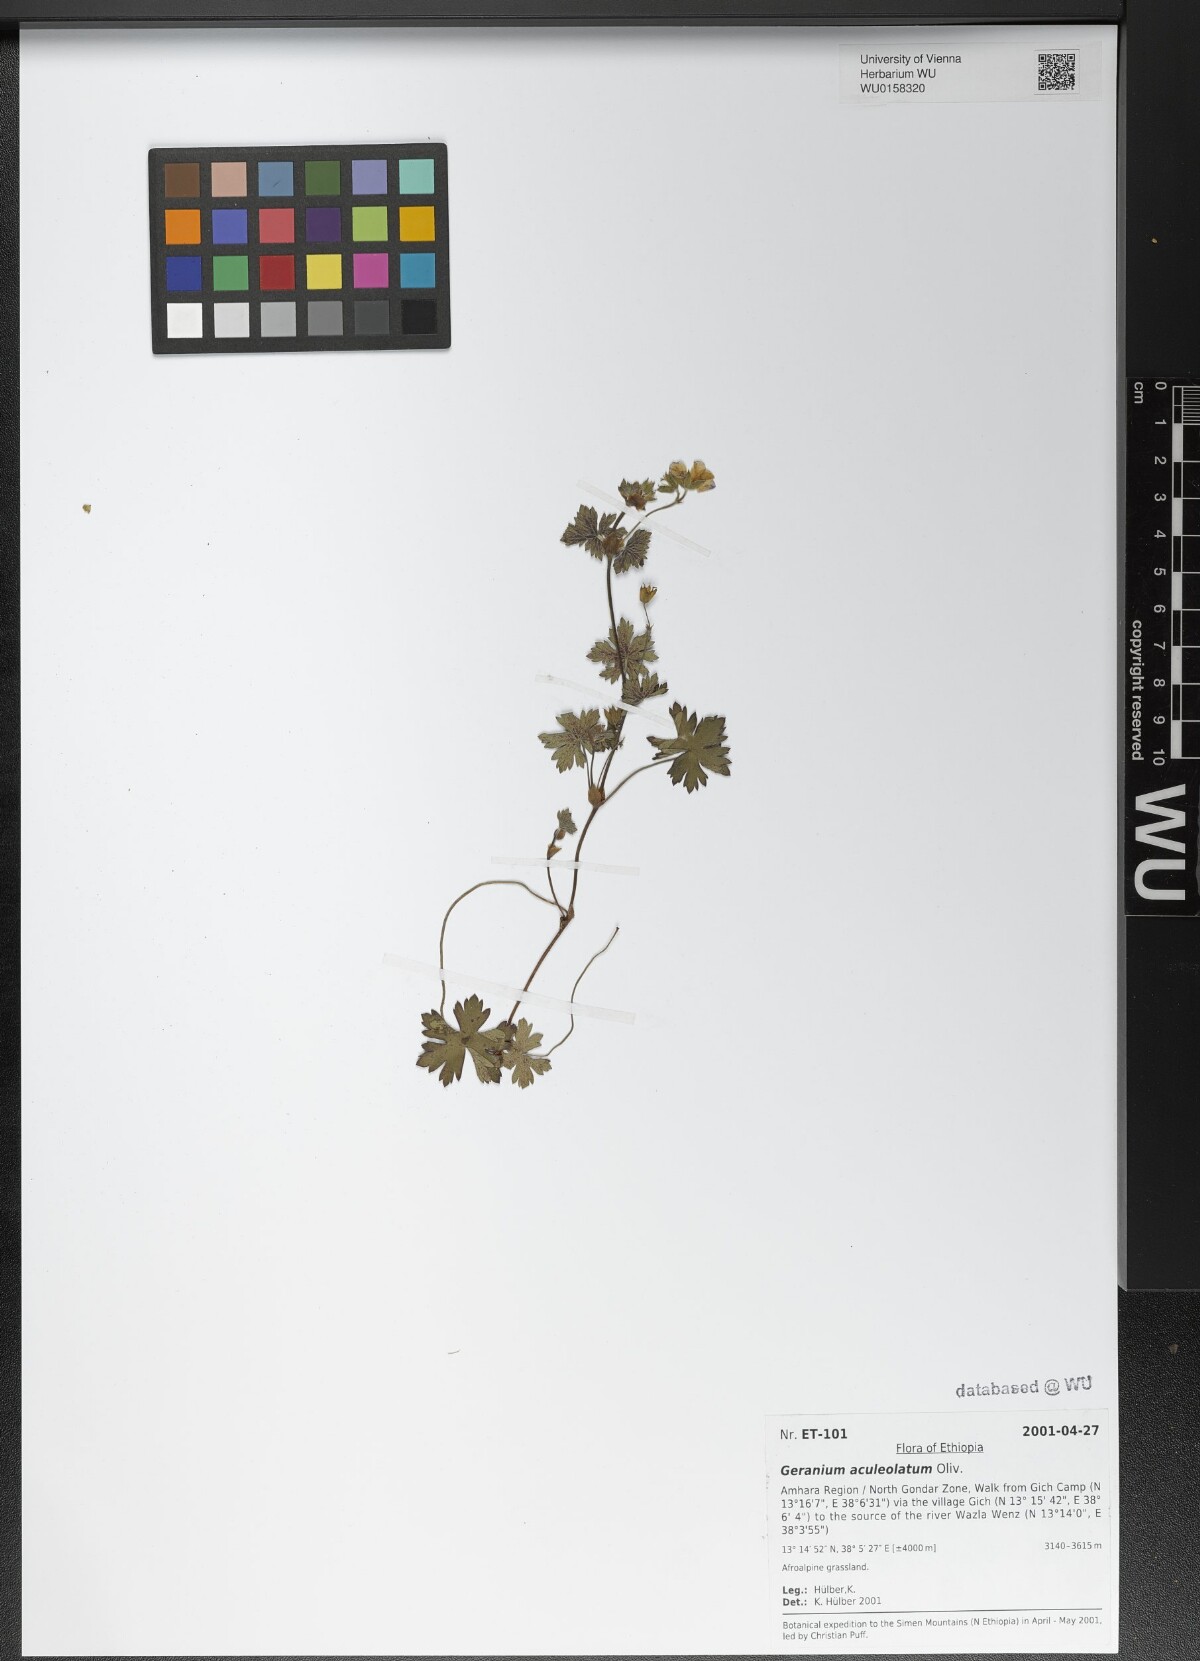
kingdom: Plantae
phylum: Tracheophyta
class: Magnoliopsida
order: Geraniales
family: Geraniaceae
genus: Geranium
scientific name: Geranium aculeolatum
